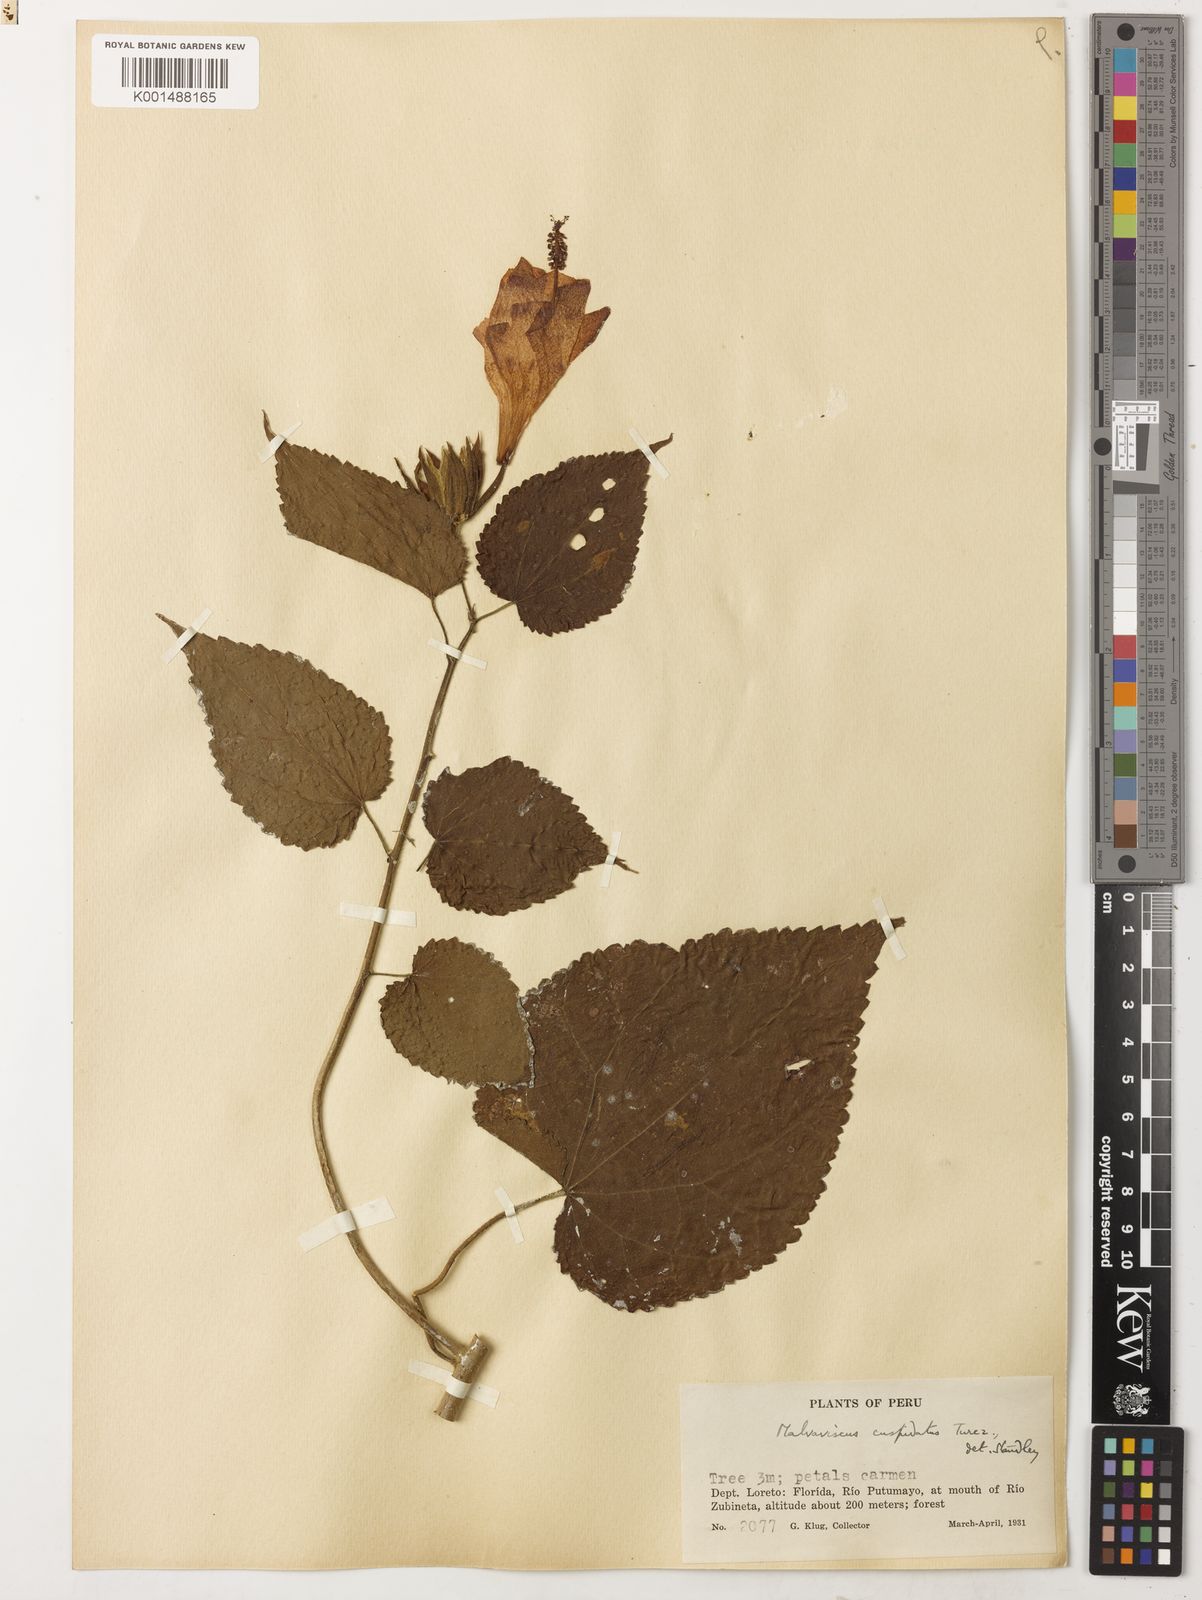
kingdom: Plantae
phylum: Tracheophyta
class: Magnoliopsida
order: Malvales
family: Malvaceae
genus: Malvaviscus
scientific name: Malvaviscus penduliflorus
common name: Mazapan
